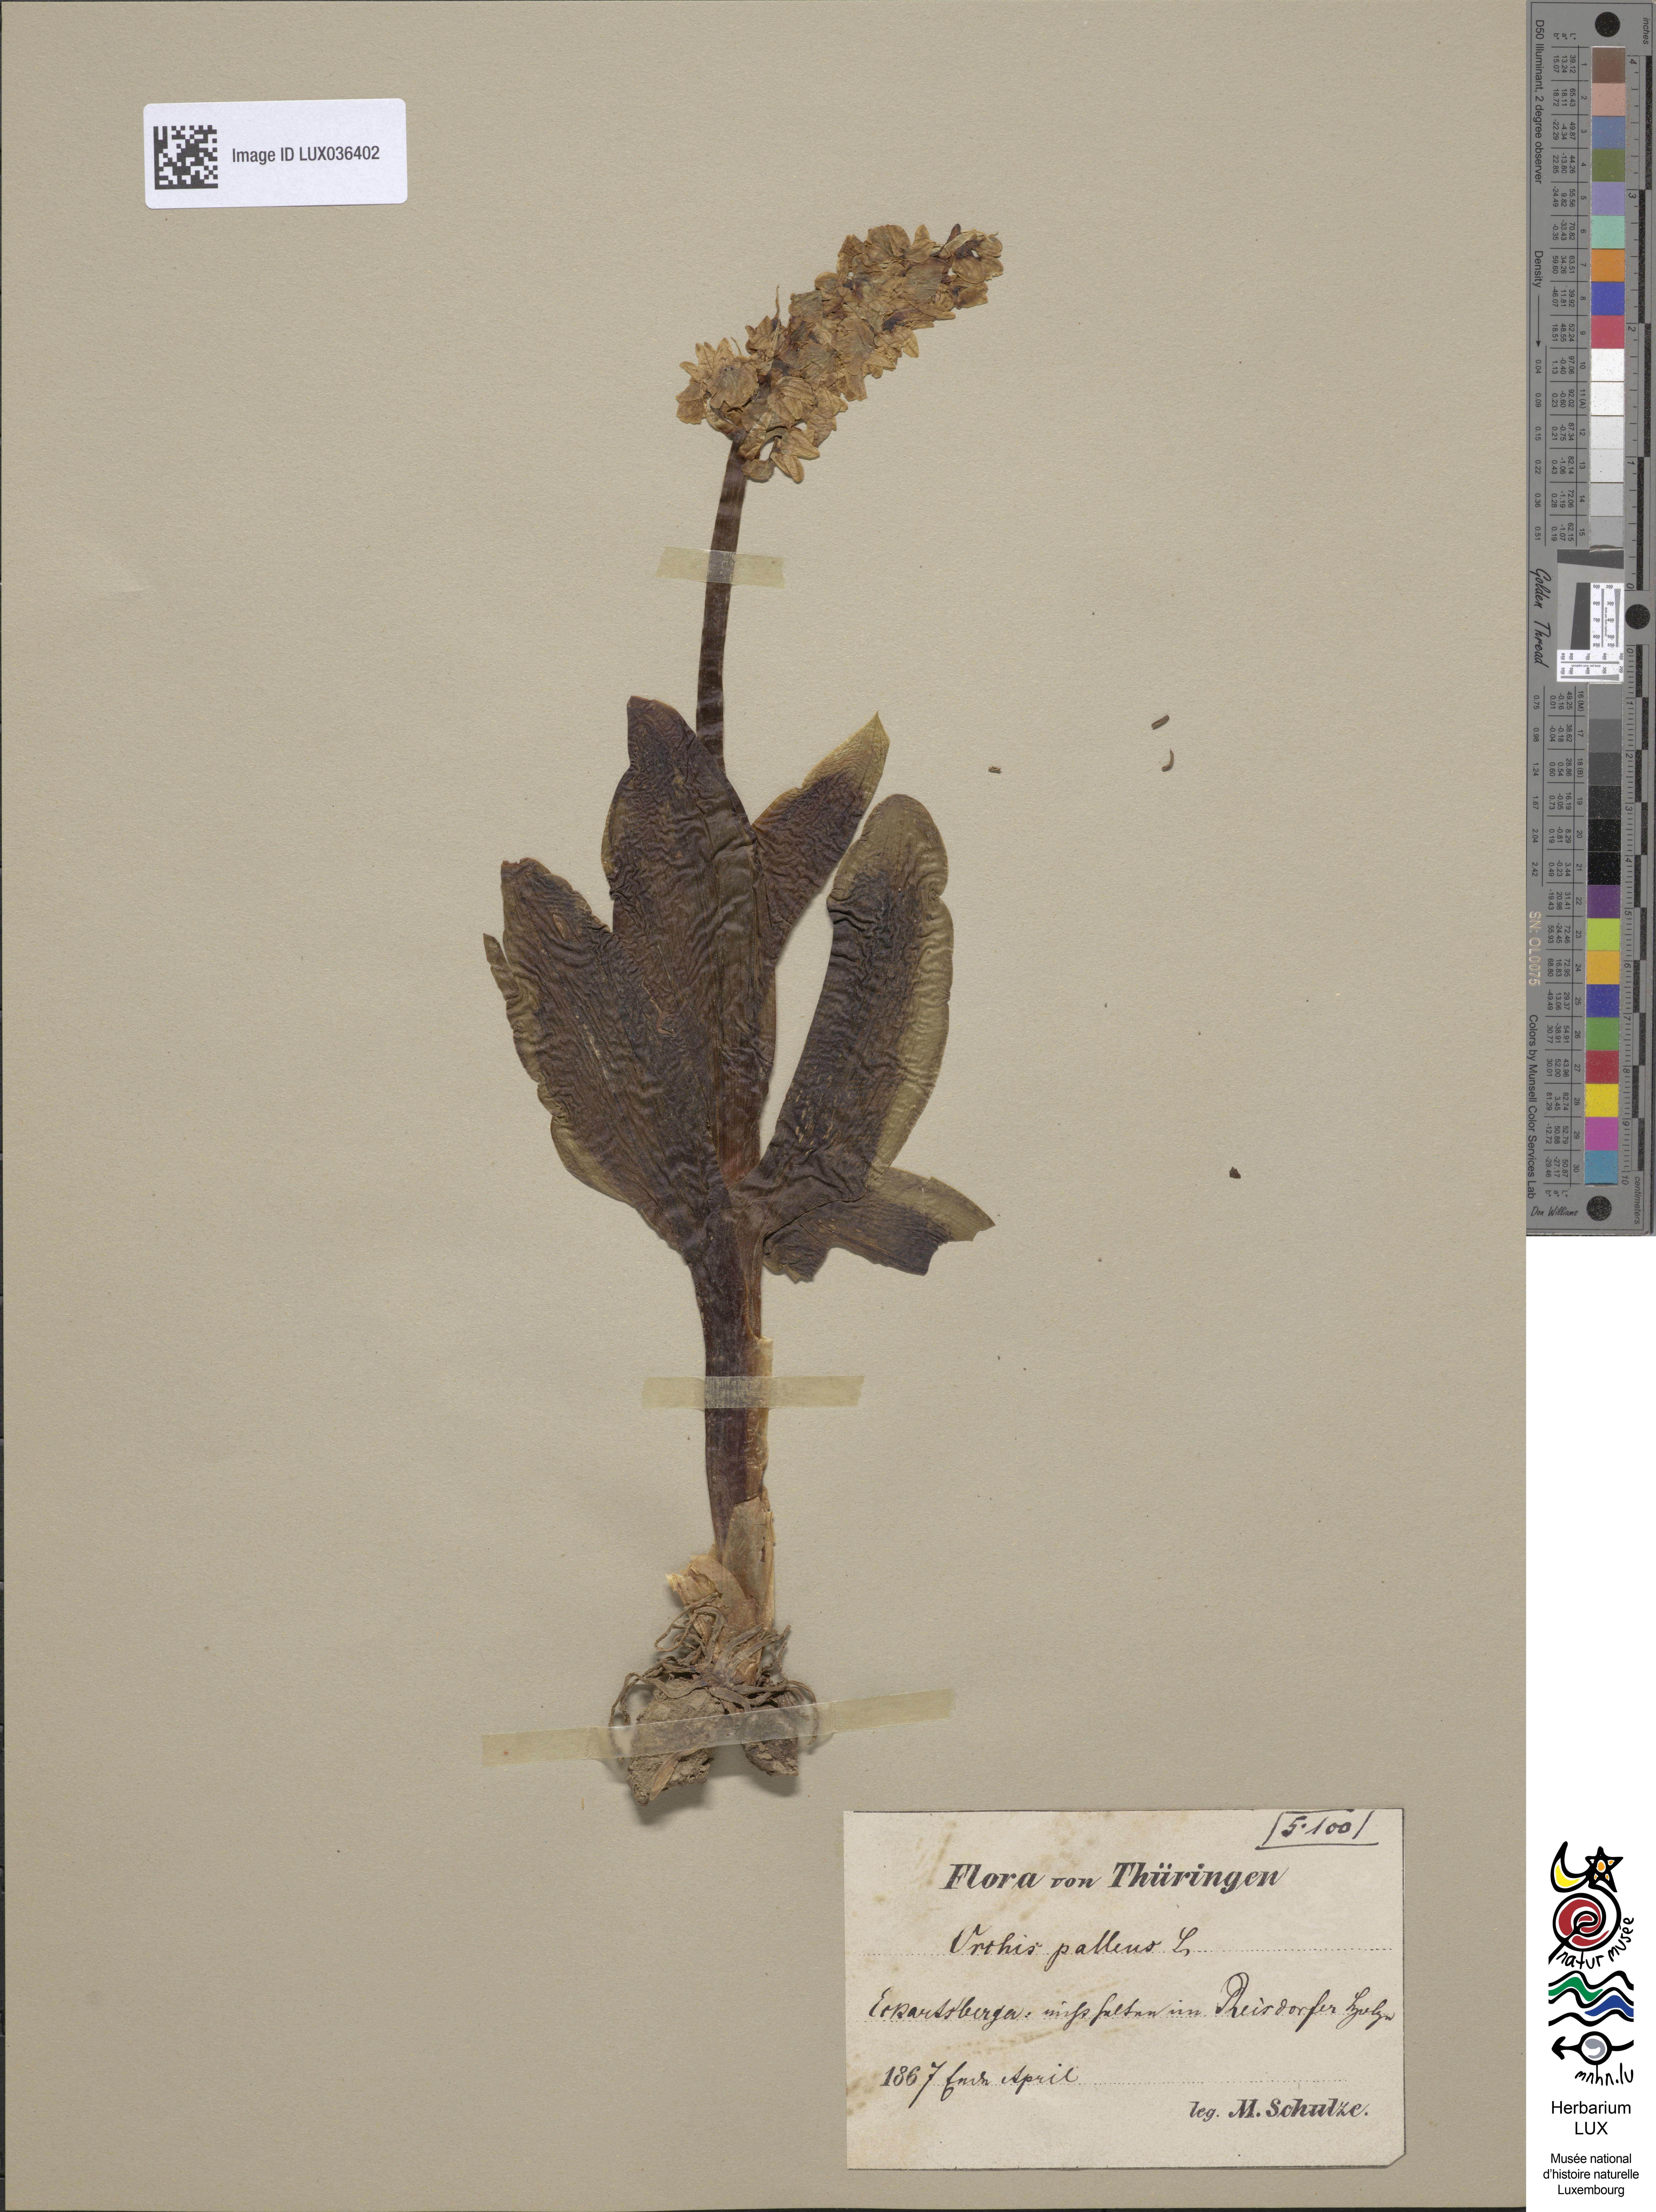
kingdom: Plantae
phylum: Tracheophyta
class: Liliopsida
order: Asparagales
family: Orchidaceae
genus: Orchis
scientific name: Orchis pallens
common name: Pale-flowered orchid
